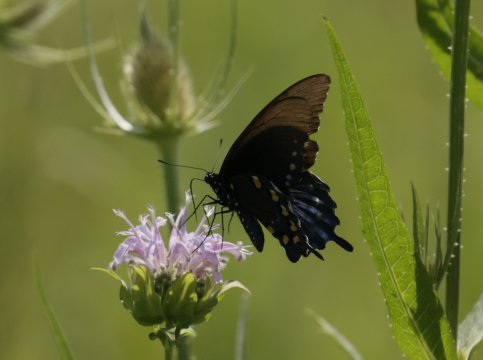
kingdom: Animalia
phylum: Arthropoda
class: Insecta
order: Lepidoptera
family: Papilionidae
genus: Battus
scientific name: Battus philenor
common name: Pipevine Swallowtail
